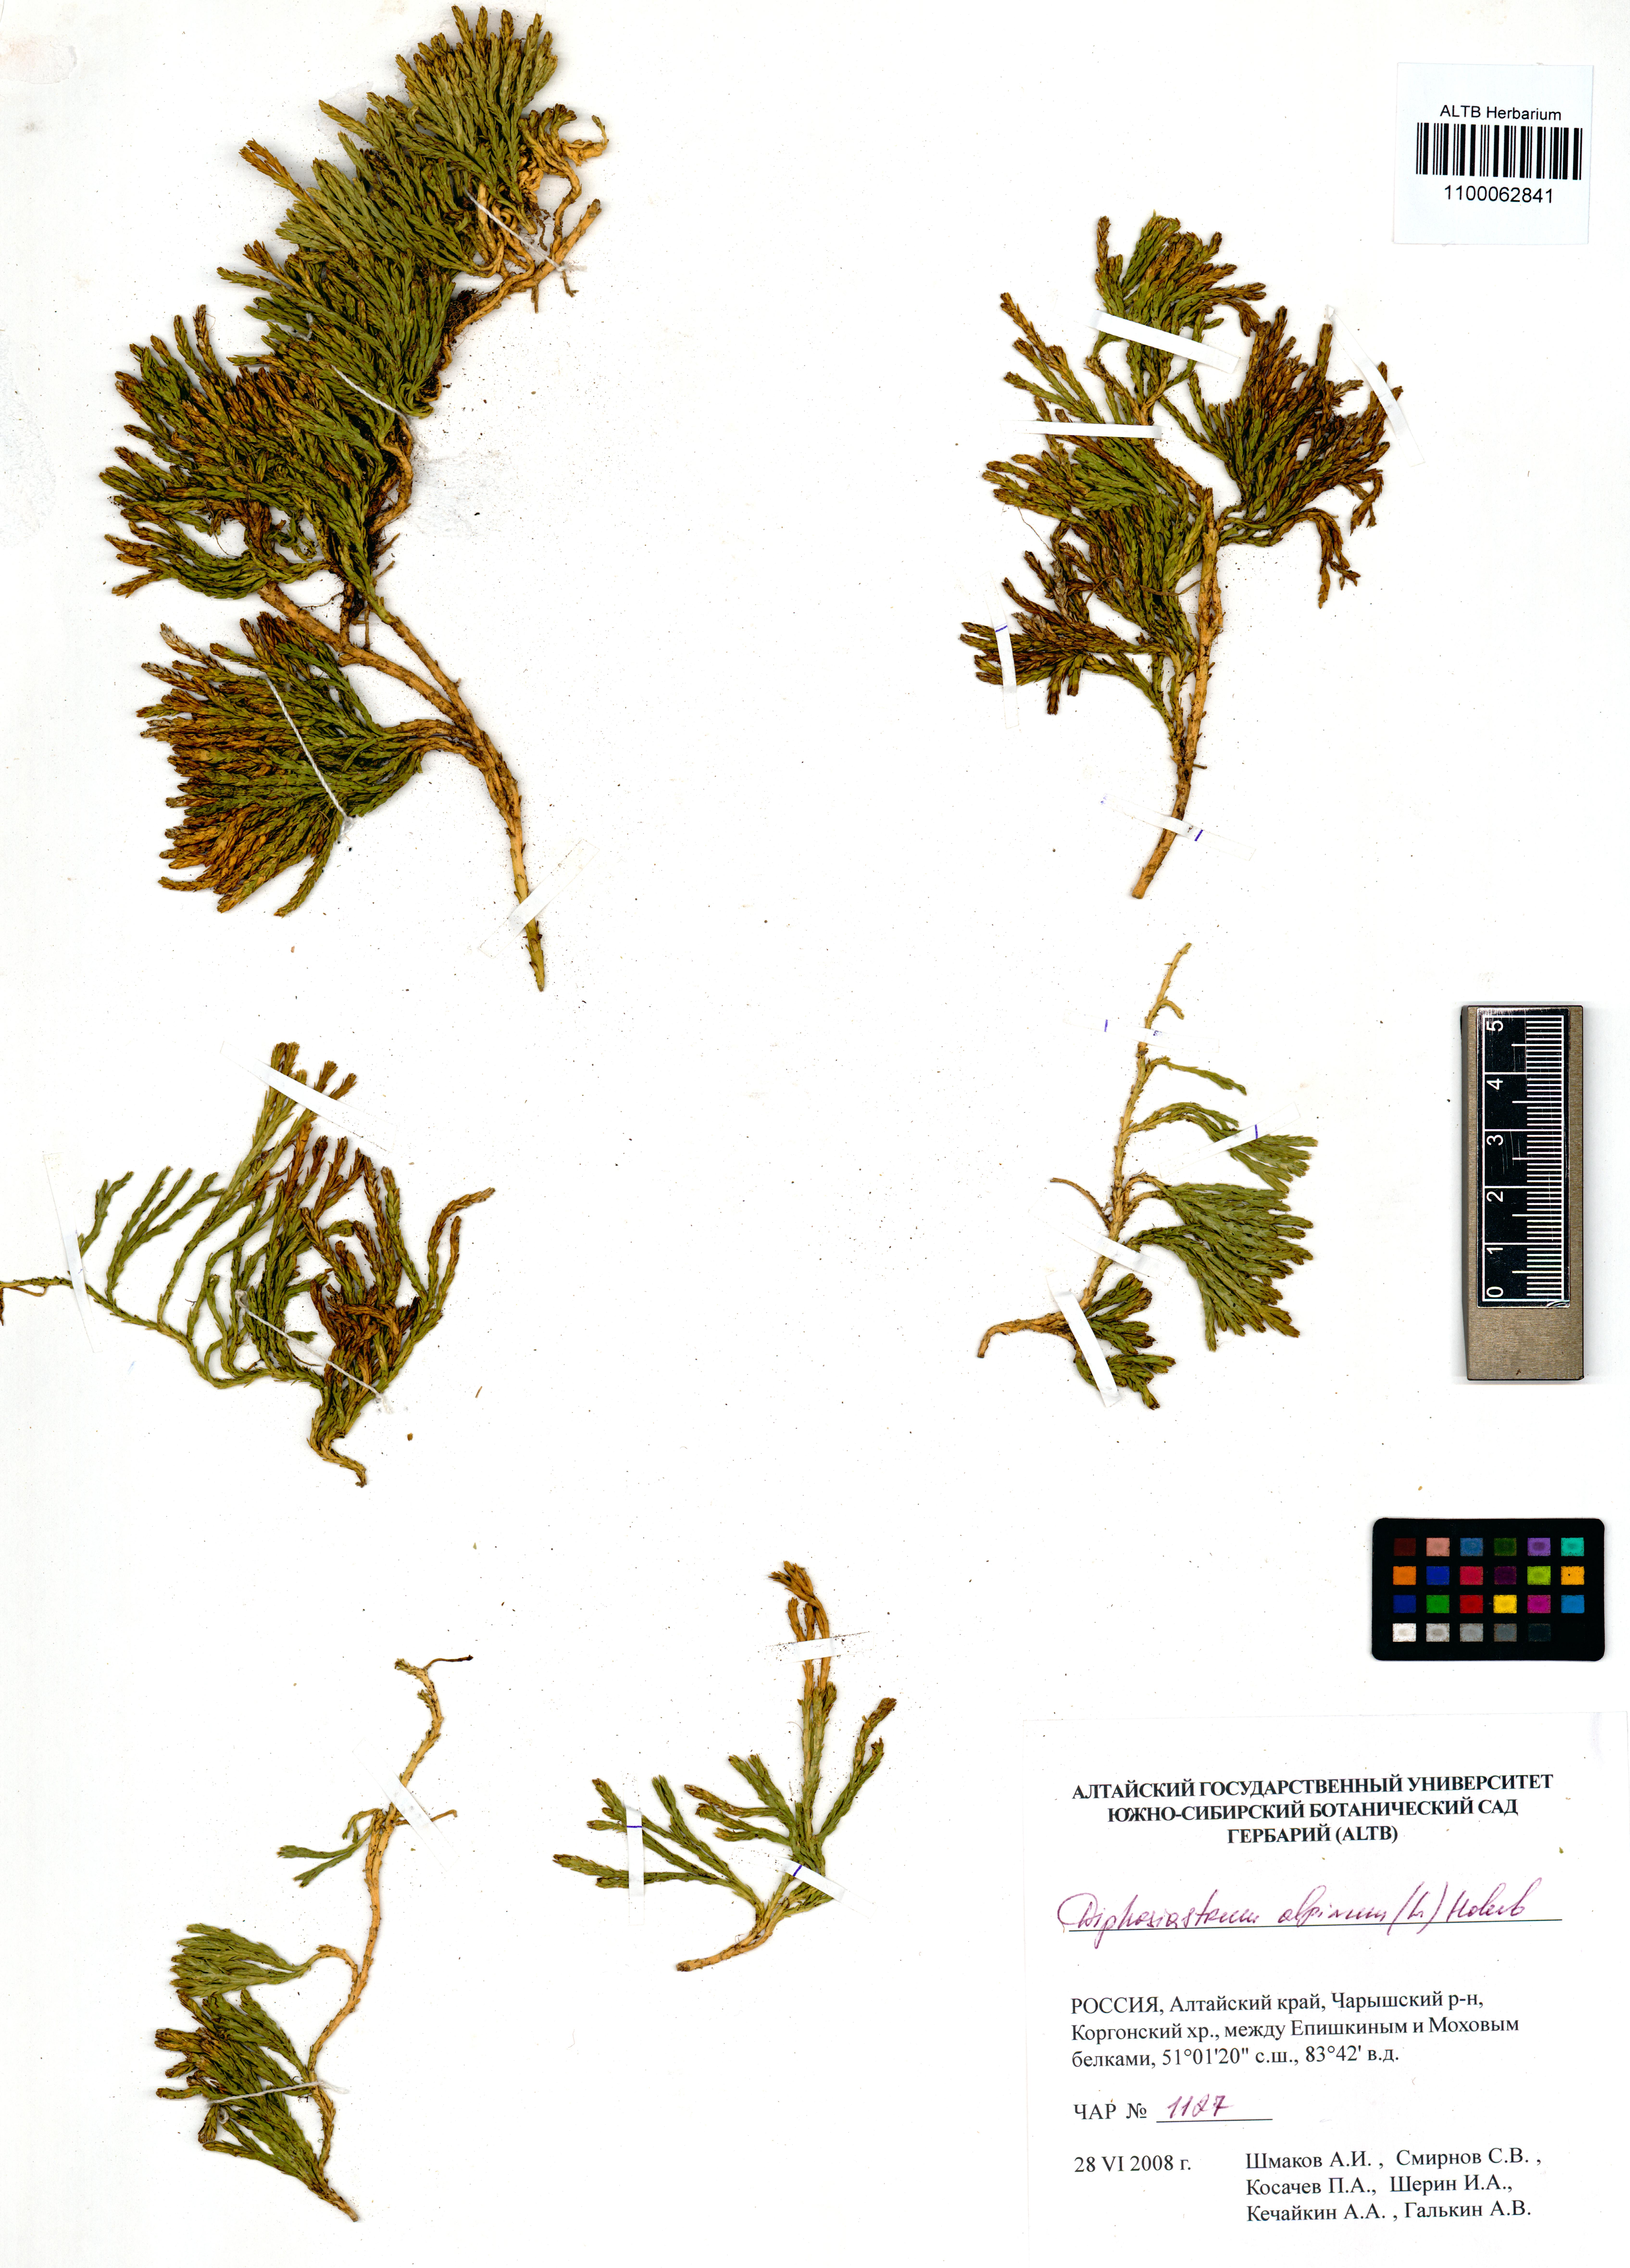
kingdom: Plantae
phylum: Tracheophyta
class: Lycopodiopsida
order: Lycopodiales
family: Lycopodiaceae
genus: Diphasiastrum
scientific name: Diphasiastrum alpinum
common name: Alpine clubmoss
